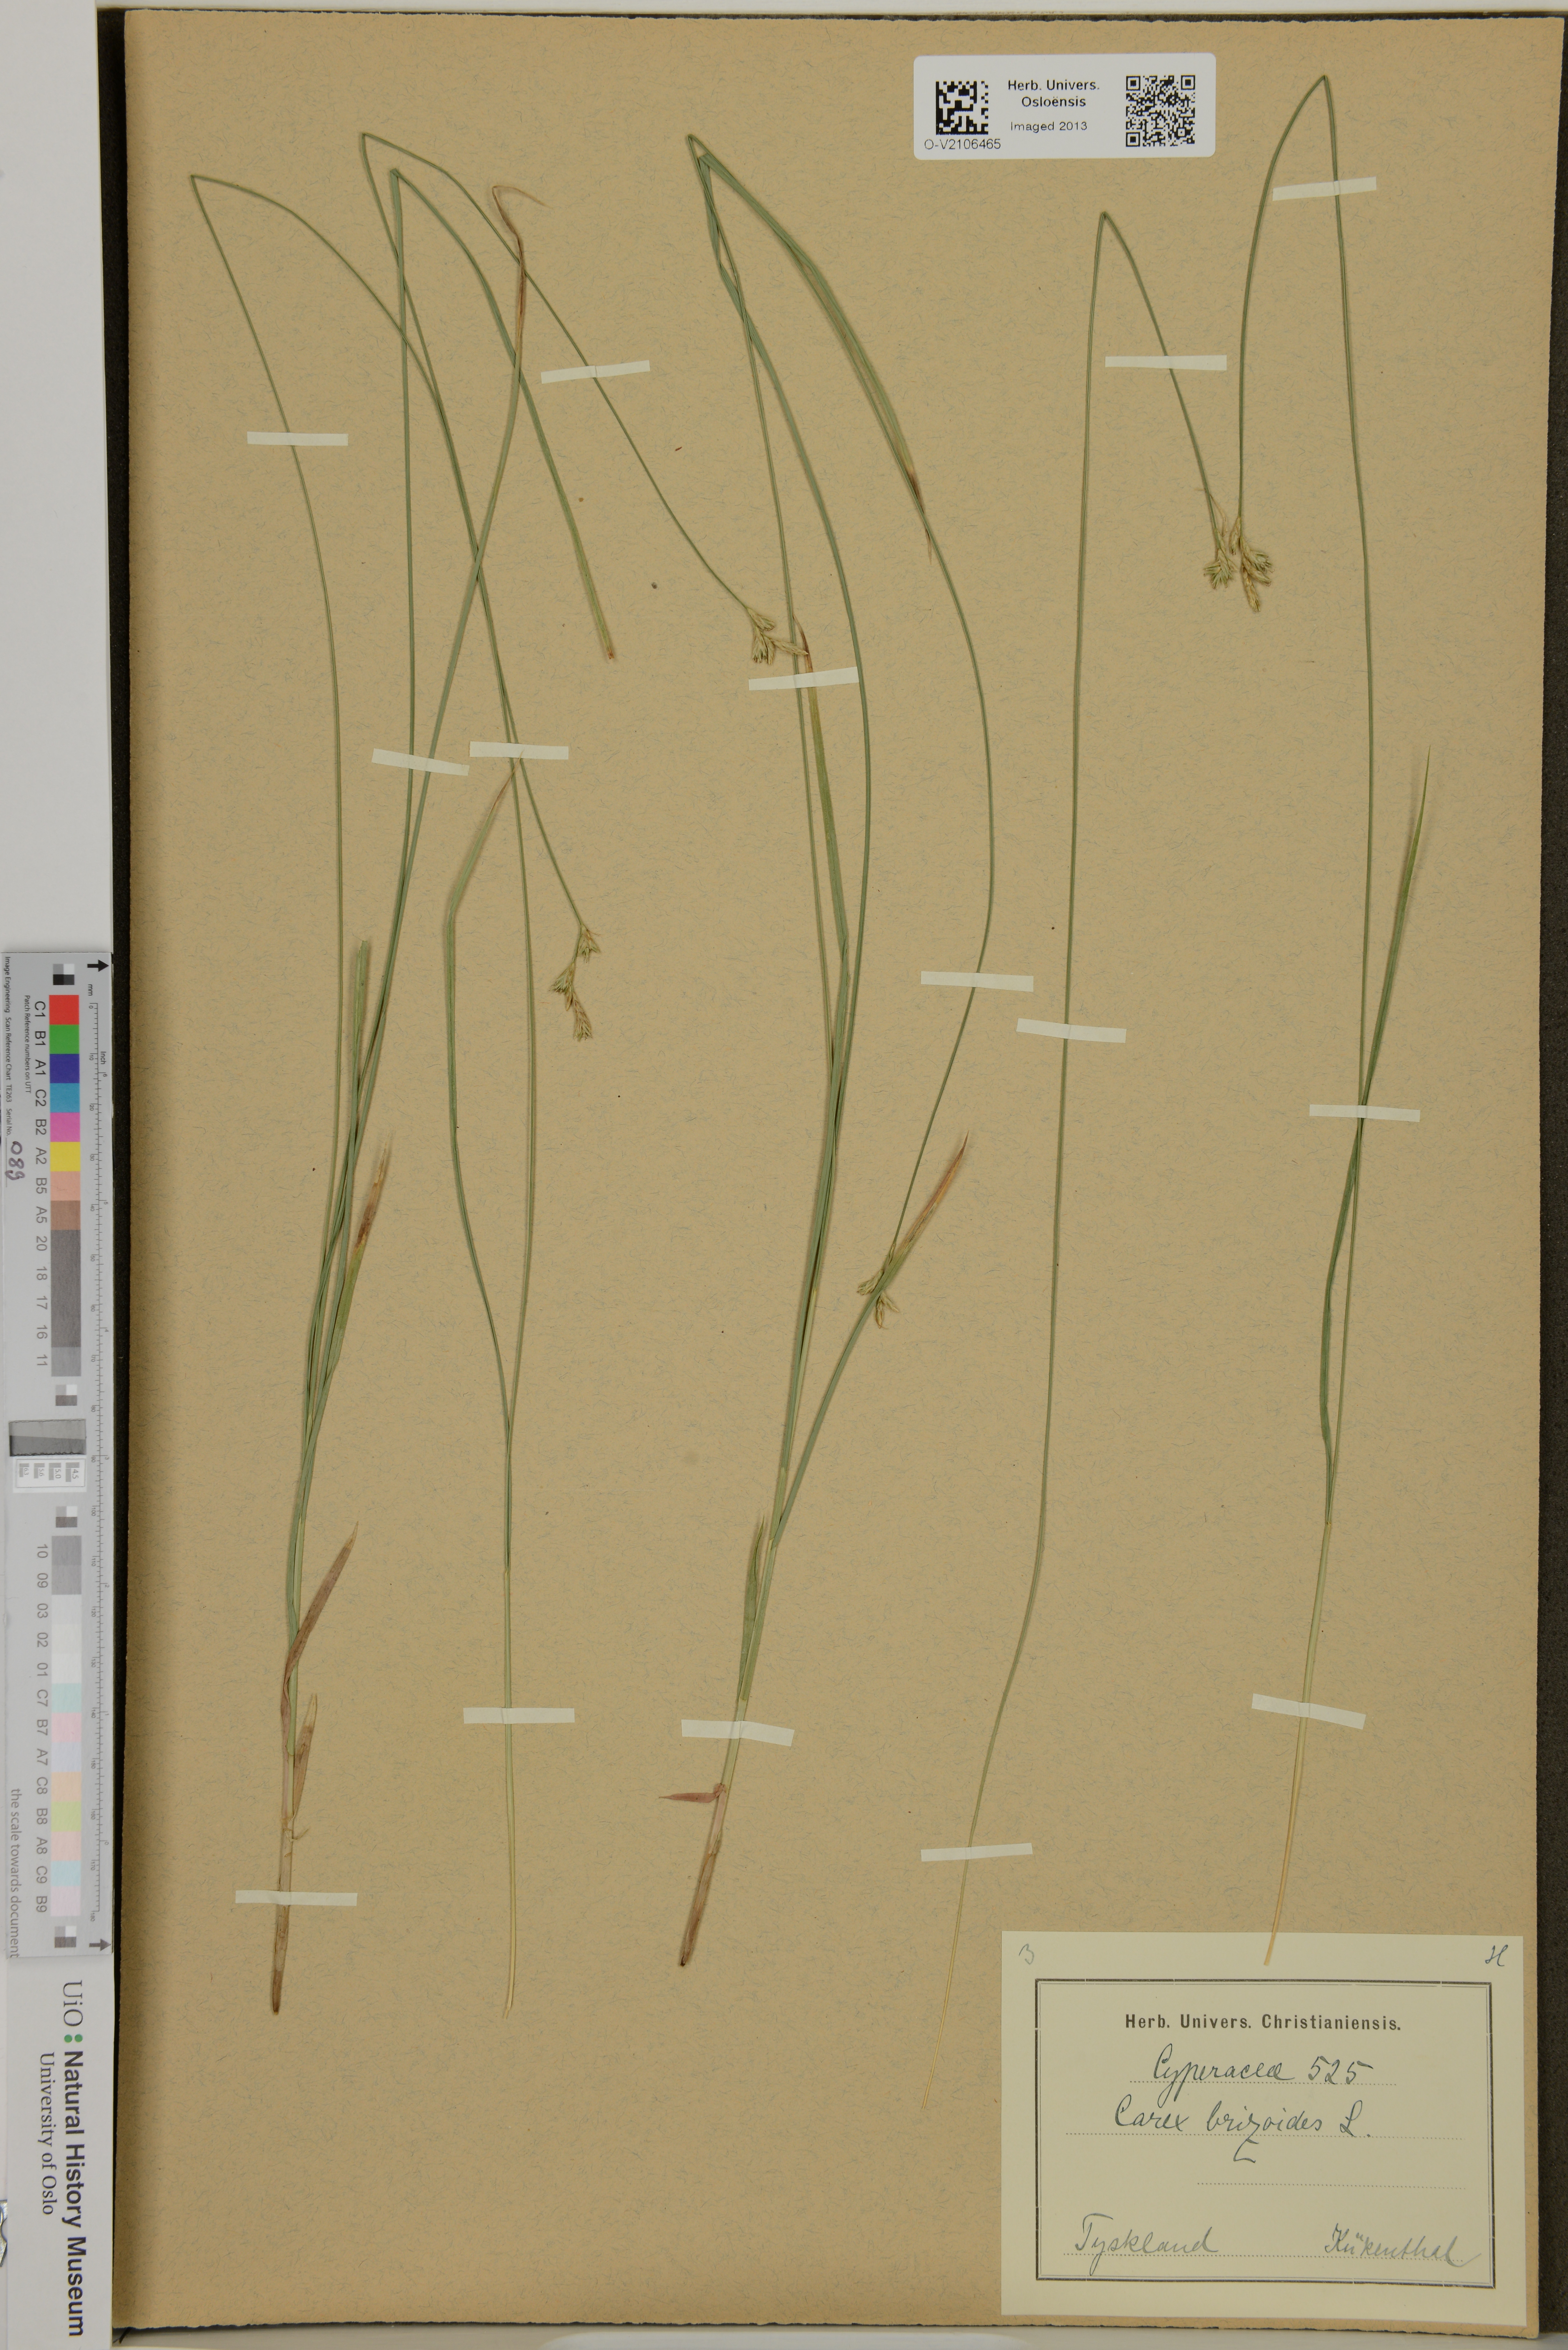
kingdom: Plantae
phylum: Tracheophyta
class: Liliopsida
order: Poales
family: Cyperaceae
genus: Carex
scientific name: Carex brizoides
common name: Quaking-grass sedge
